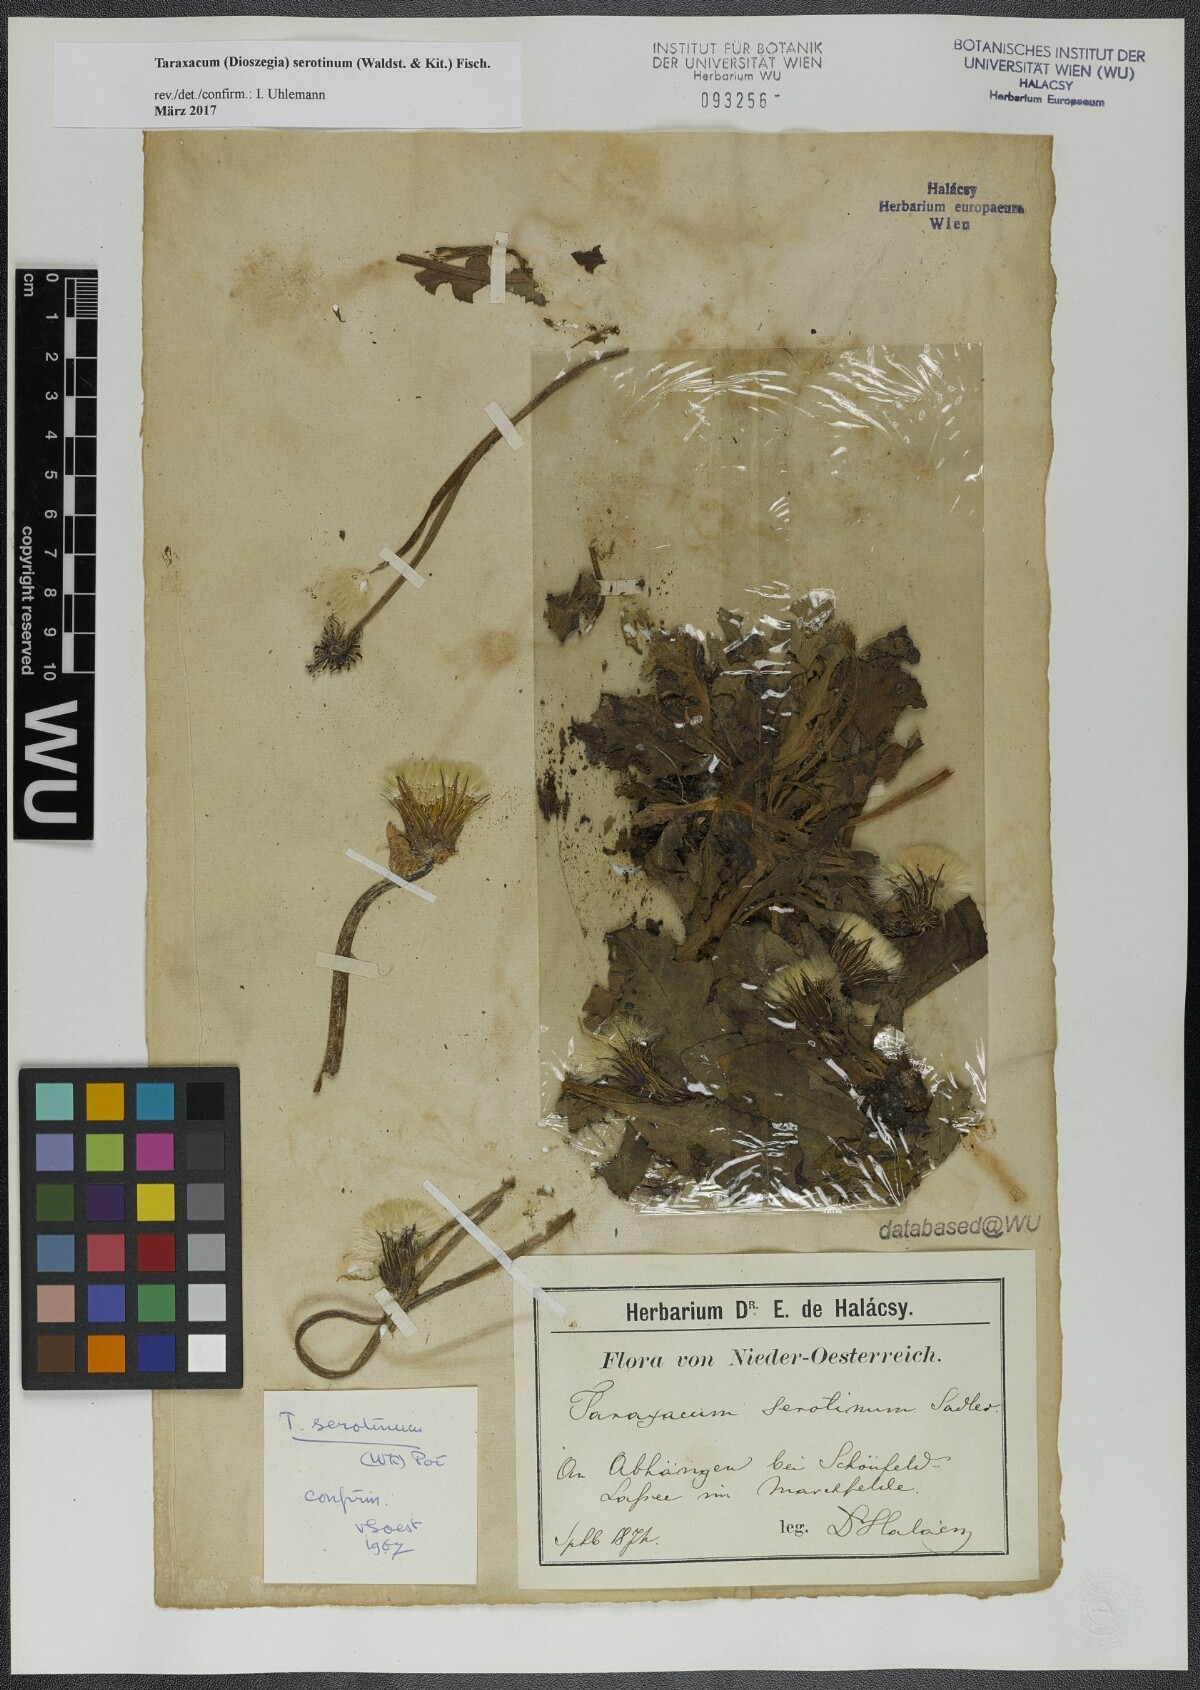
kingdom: Plantae
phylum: Tracheophyta
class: Magnoliopsida
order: Asterales
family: Asteraceae
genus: Taraxacum
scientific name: Taraxacum serotinum
